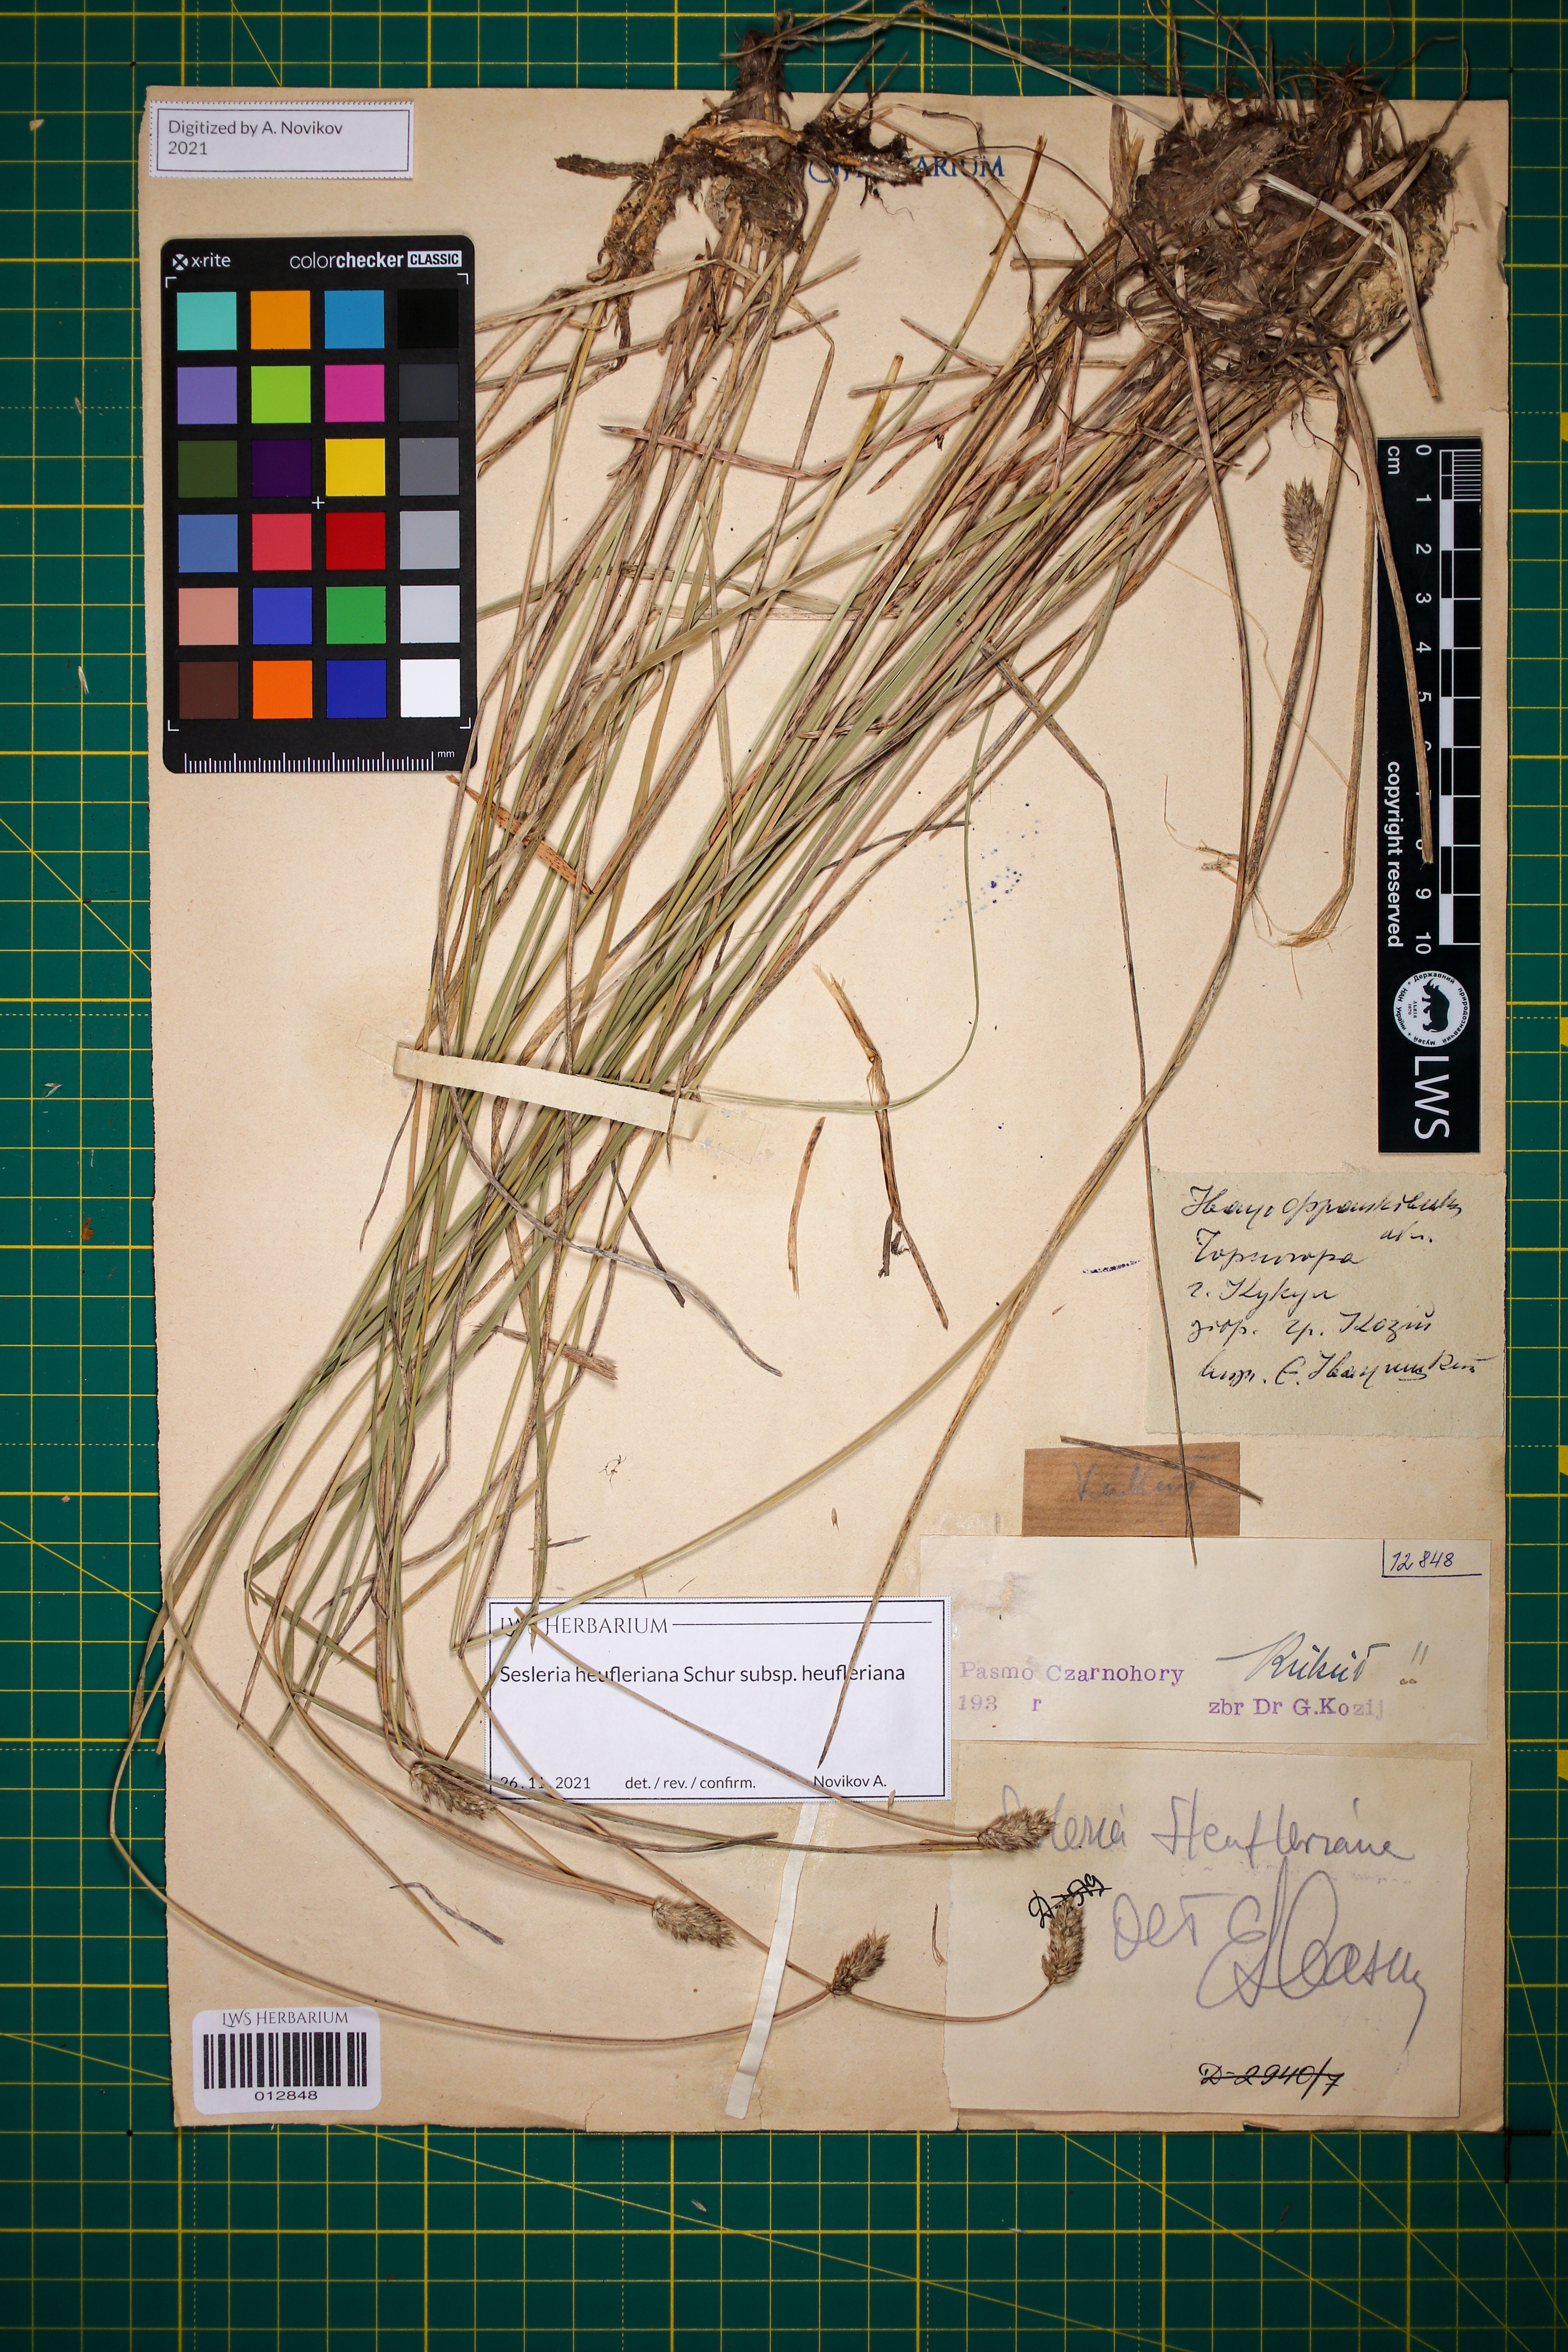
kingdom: Plantae
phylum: Tracheophyta
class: Liliopsida
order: Poales
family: Poaceae
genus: Sesleria
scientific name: Sesleria heufleriana
